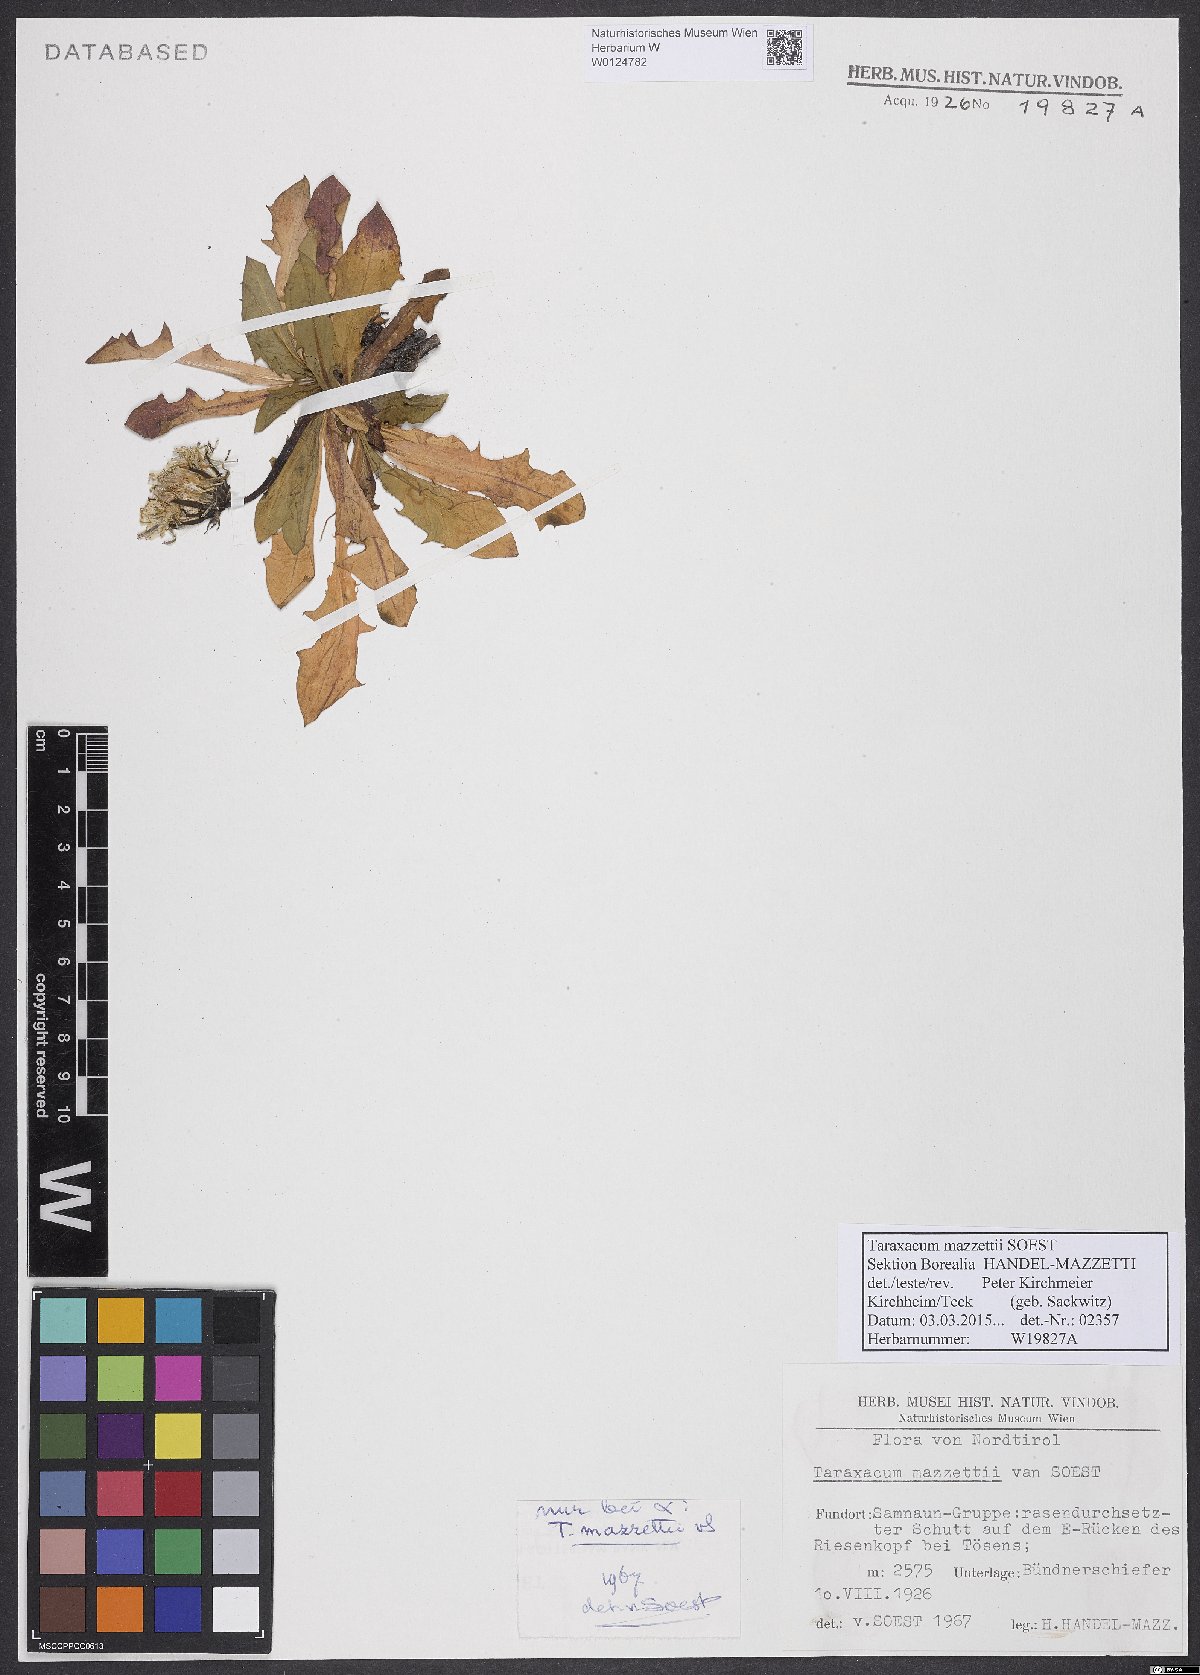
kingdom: Plantae
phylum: Tracheophyta
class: Magnoliopsida
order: Asterales
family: Asteraceae
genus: Taraxacum
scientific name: Taraxacum mazzetii
